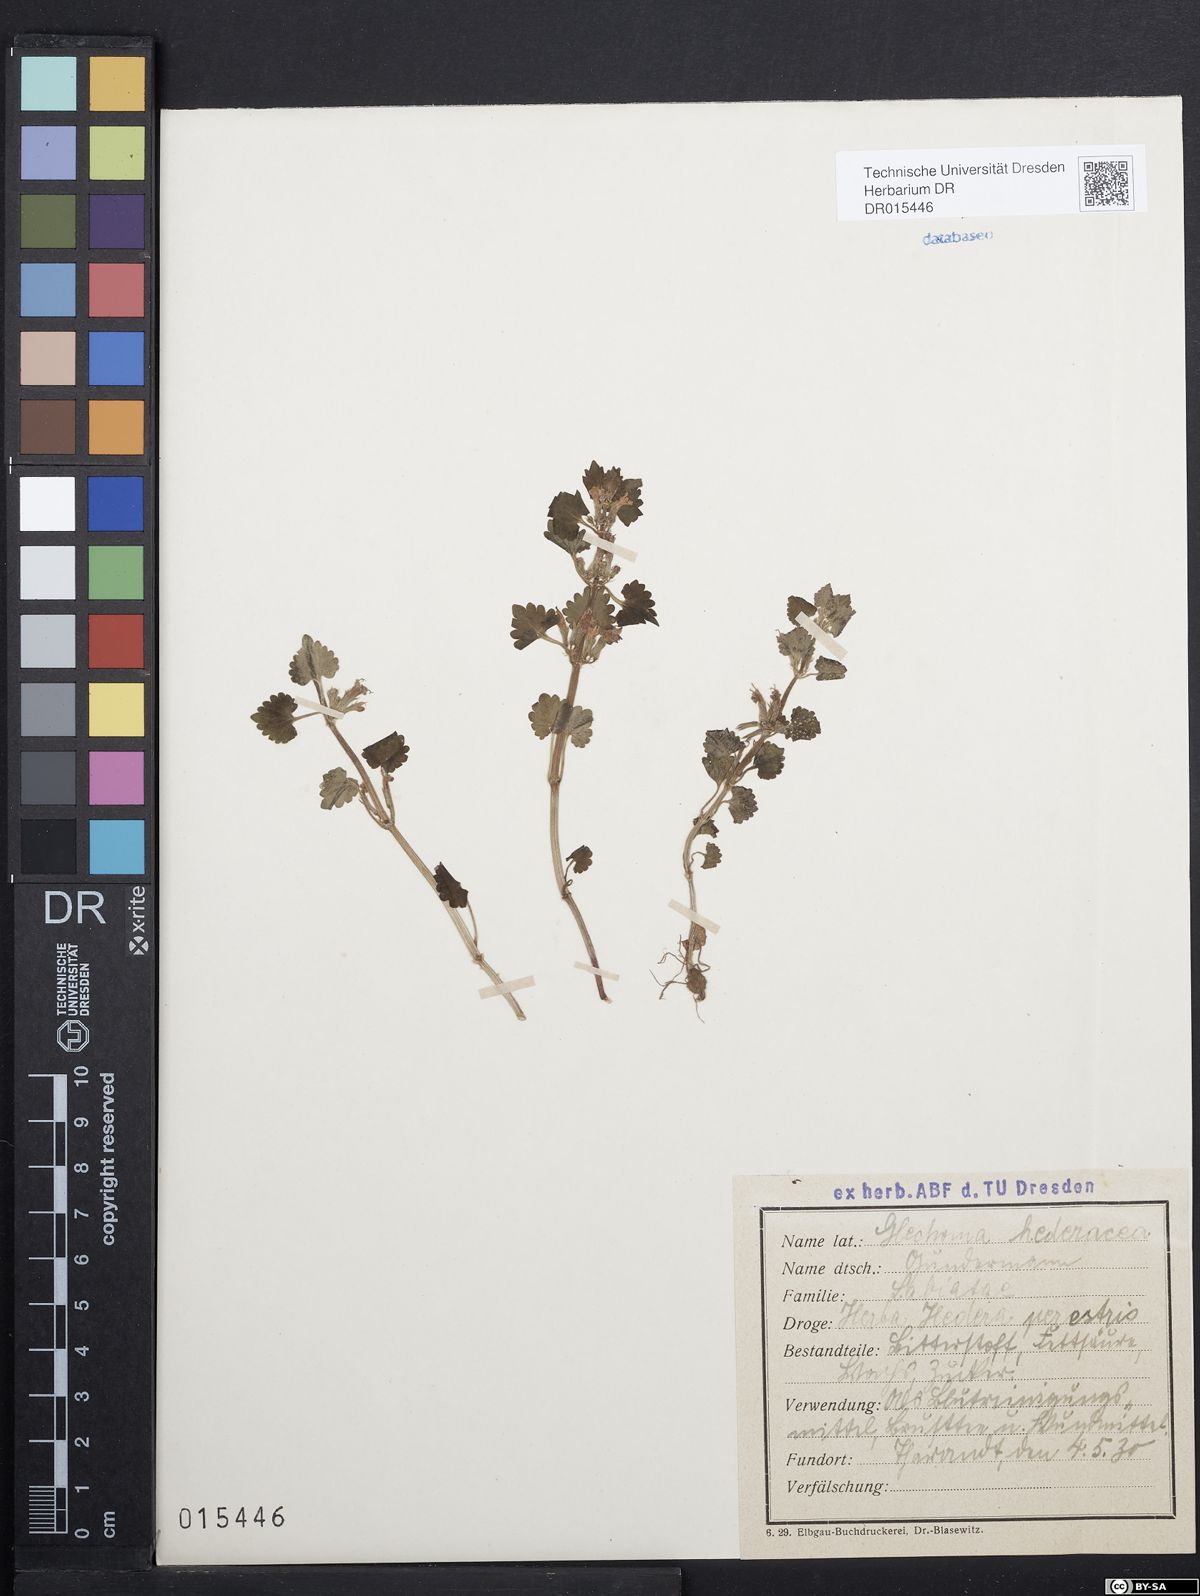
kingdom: Plantae
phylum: Tracheophyta
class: Magnoliopsida
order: Lamiales
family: Lamiaceae
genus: Glechoma
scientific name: Glechoma hederacea
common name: Ground ivy
